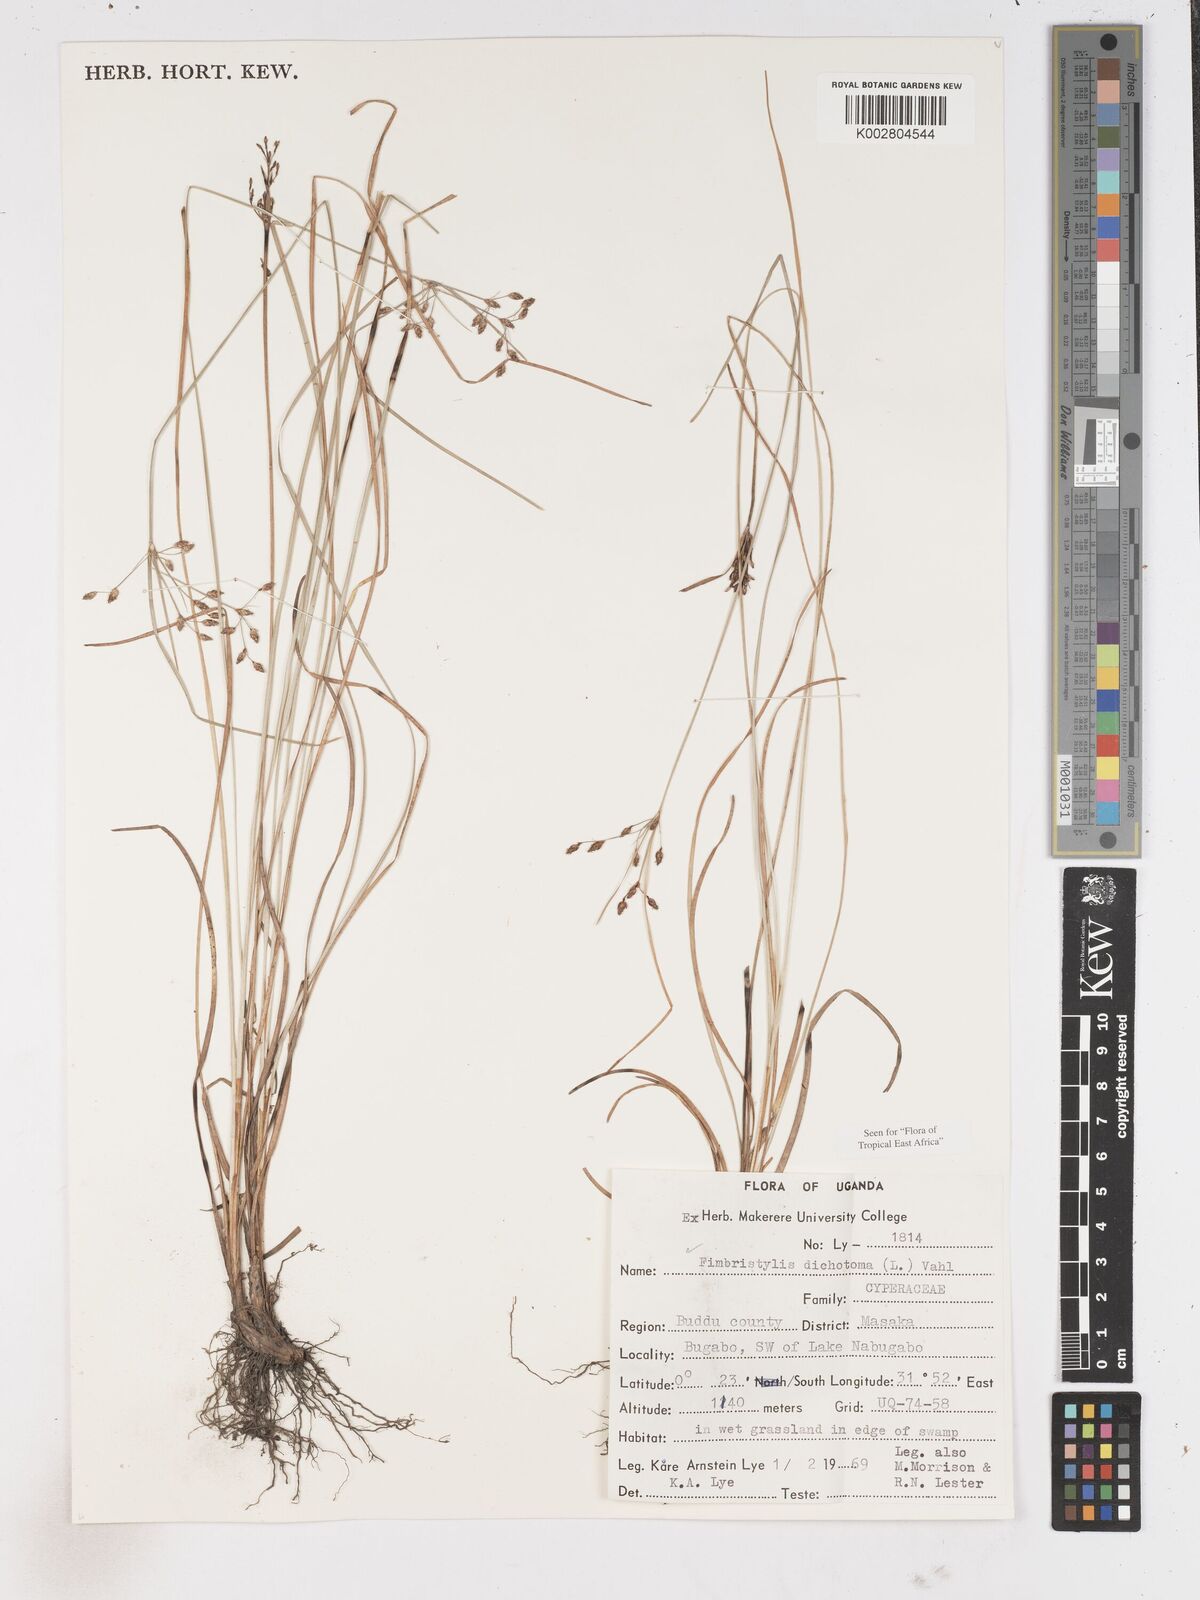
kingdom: Plantae
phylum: Tracheophyta
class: Liliopsida
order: Poales
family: Cyperaceae
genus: Fimbristylis
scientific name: Fimbristylis dichotoma
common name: Forked fimbry
